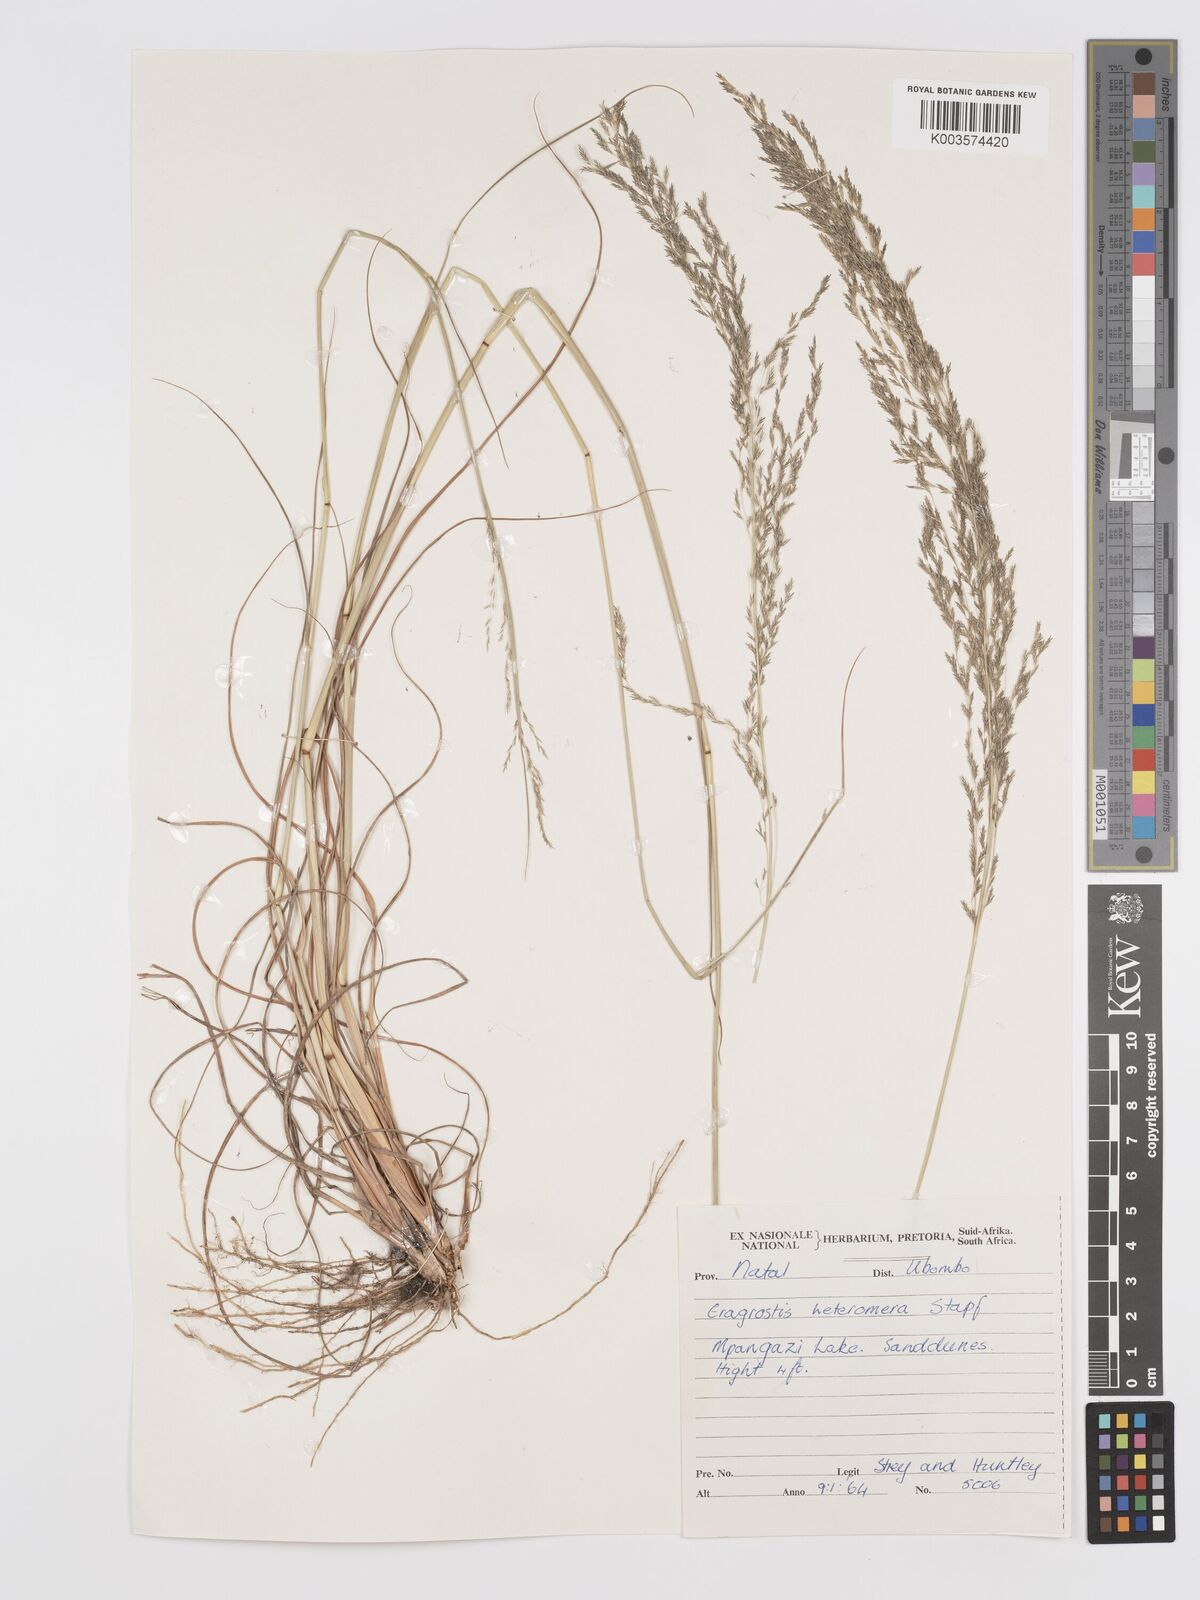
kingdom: Plantae
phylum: Tracheophyta
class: Liliopsida
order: Poales
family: Poaceae
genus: Eragrostis
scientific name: Eragrostis heteromera
